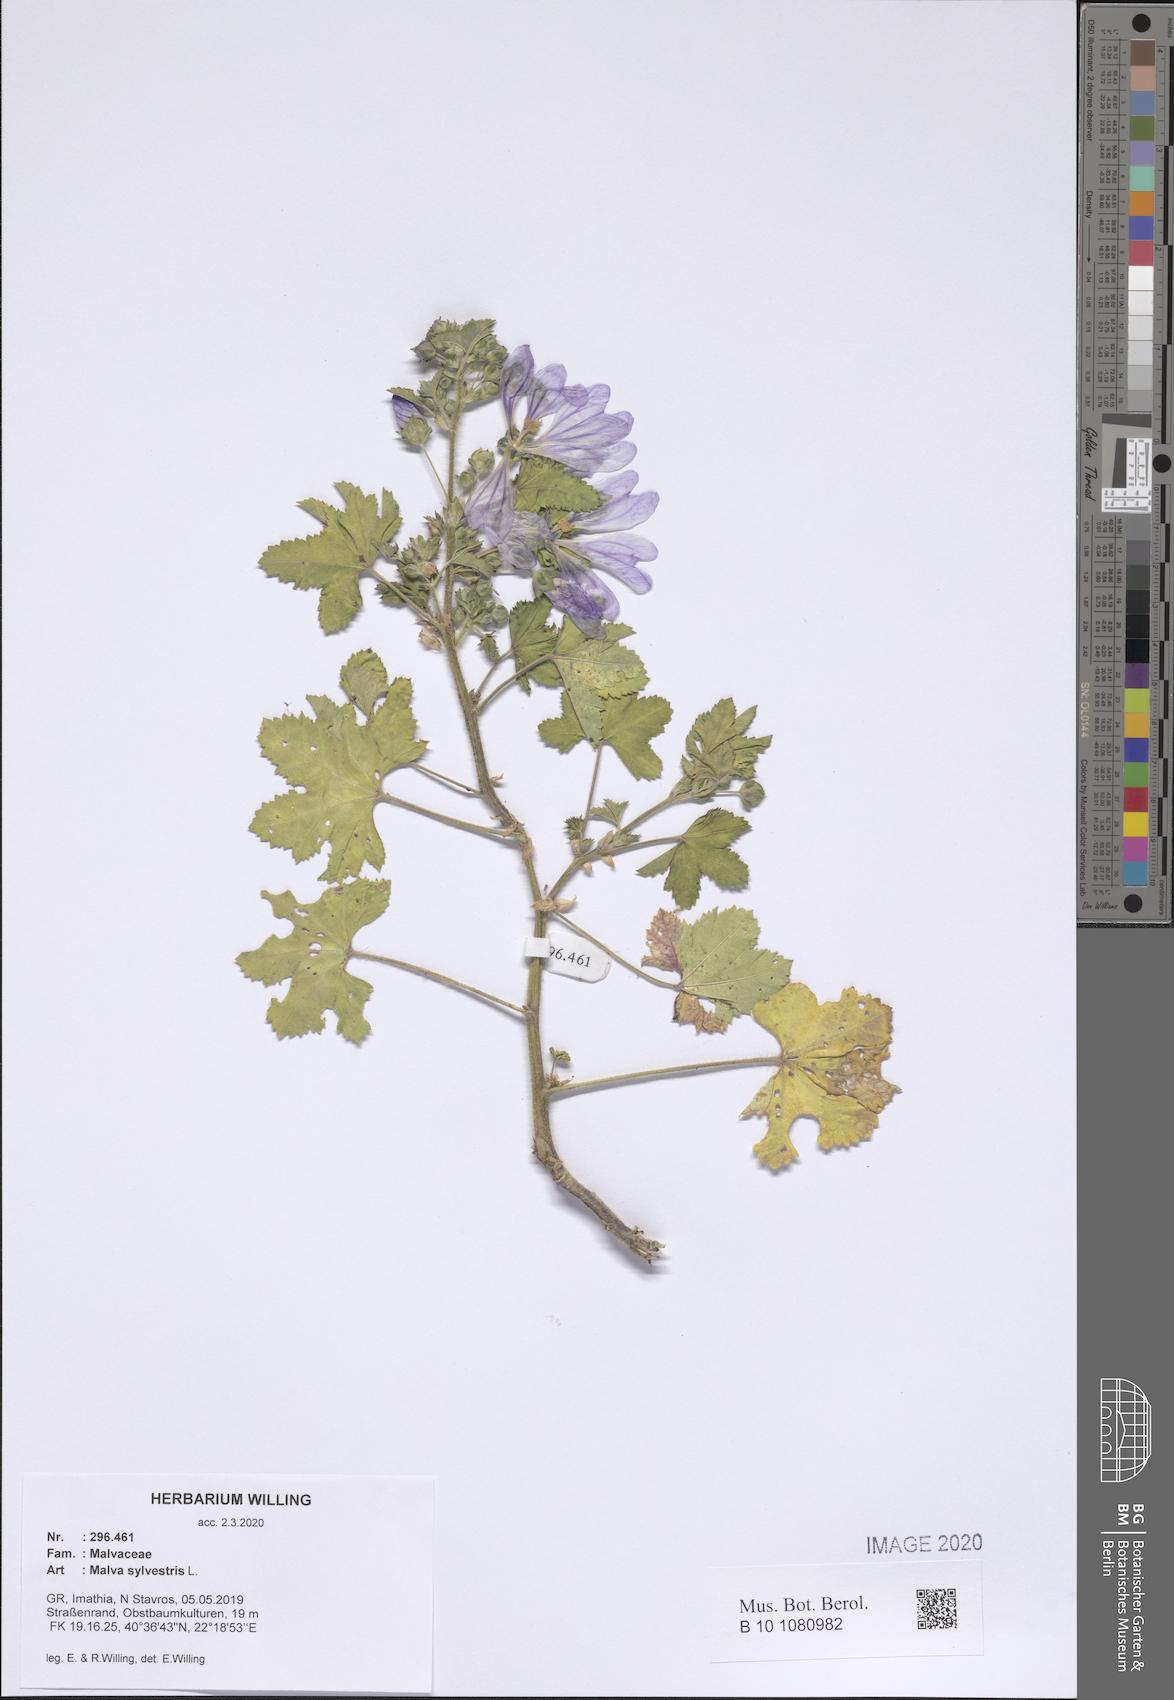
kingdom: Plantae
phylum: Tracheophyta
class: Magnoliopsida
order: Malvales
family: Malvaceae
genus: Malva
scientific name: Malva sylvestris
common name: Common mallow
